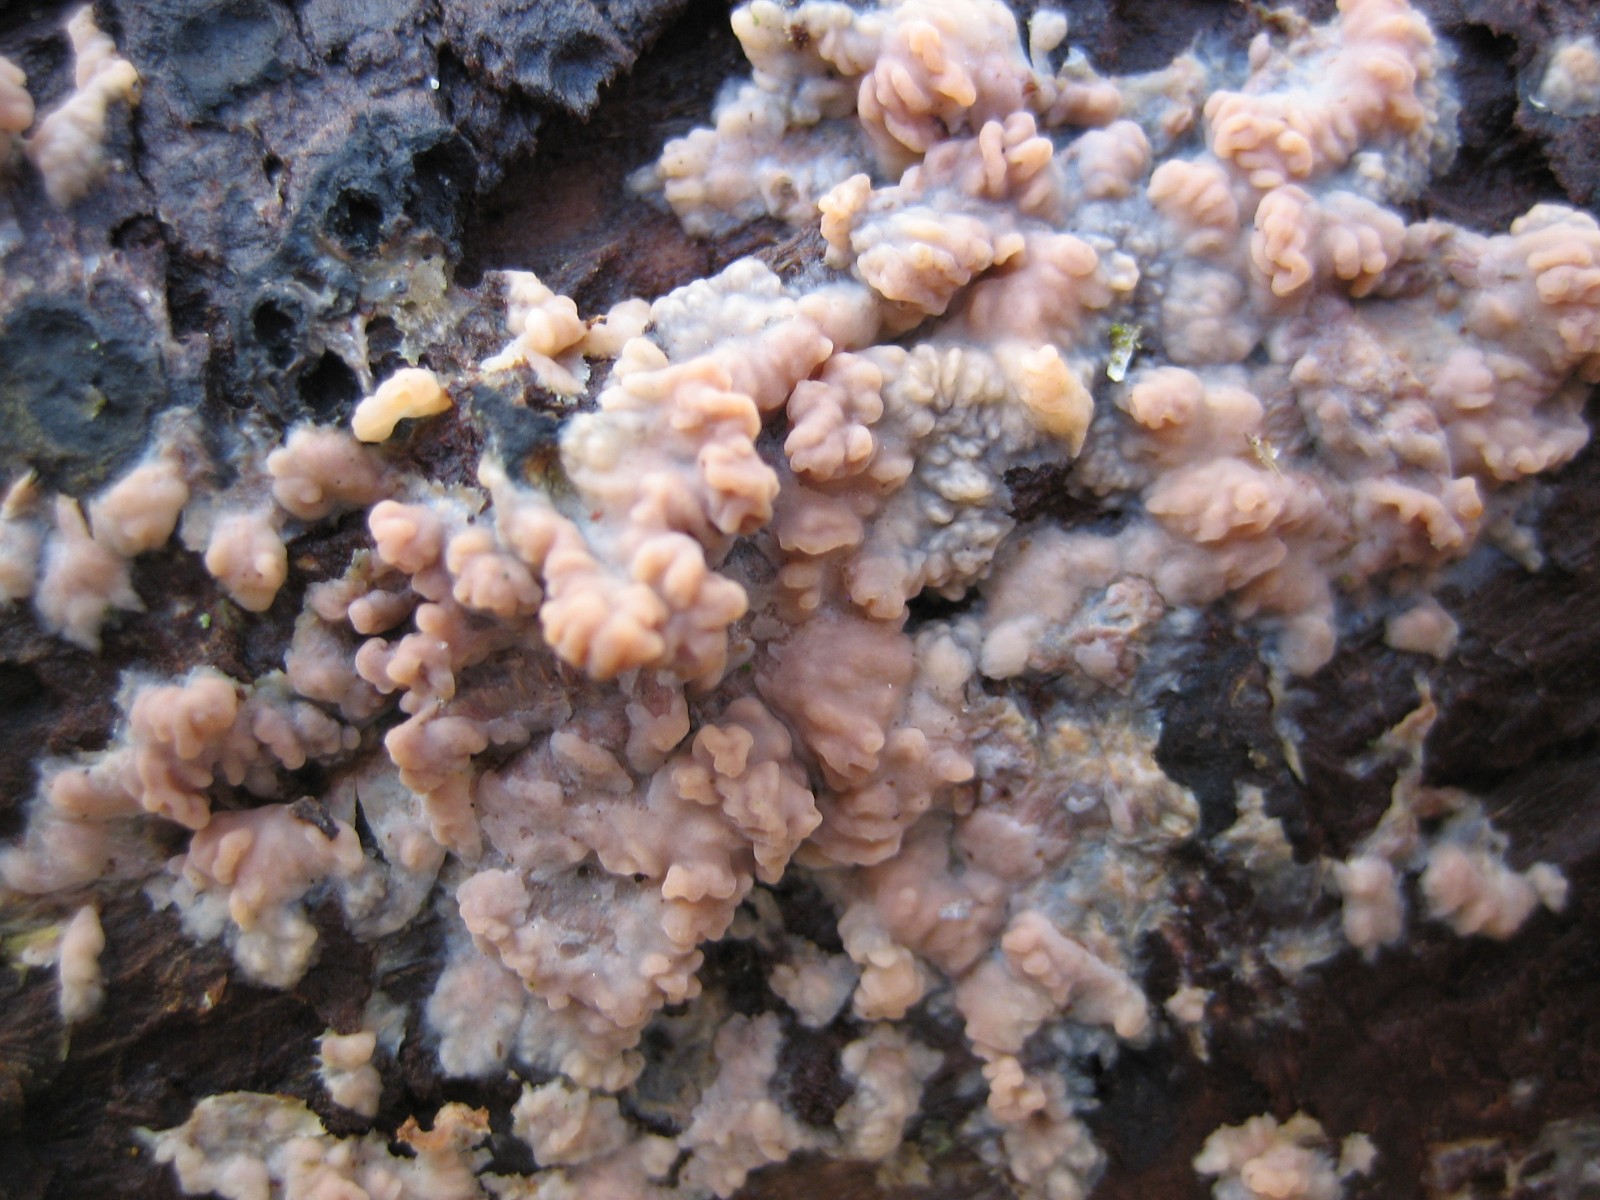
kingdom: Fungi
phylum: Basidiomycota
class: Agaricomycetes
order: Polyporales
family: Meruliaceae
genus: Phlebia
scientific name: Phlebia radiata
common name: stråle-åresvamp
